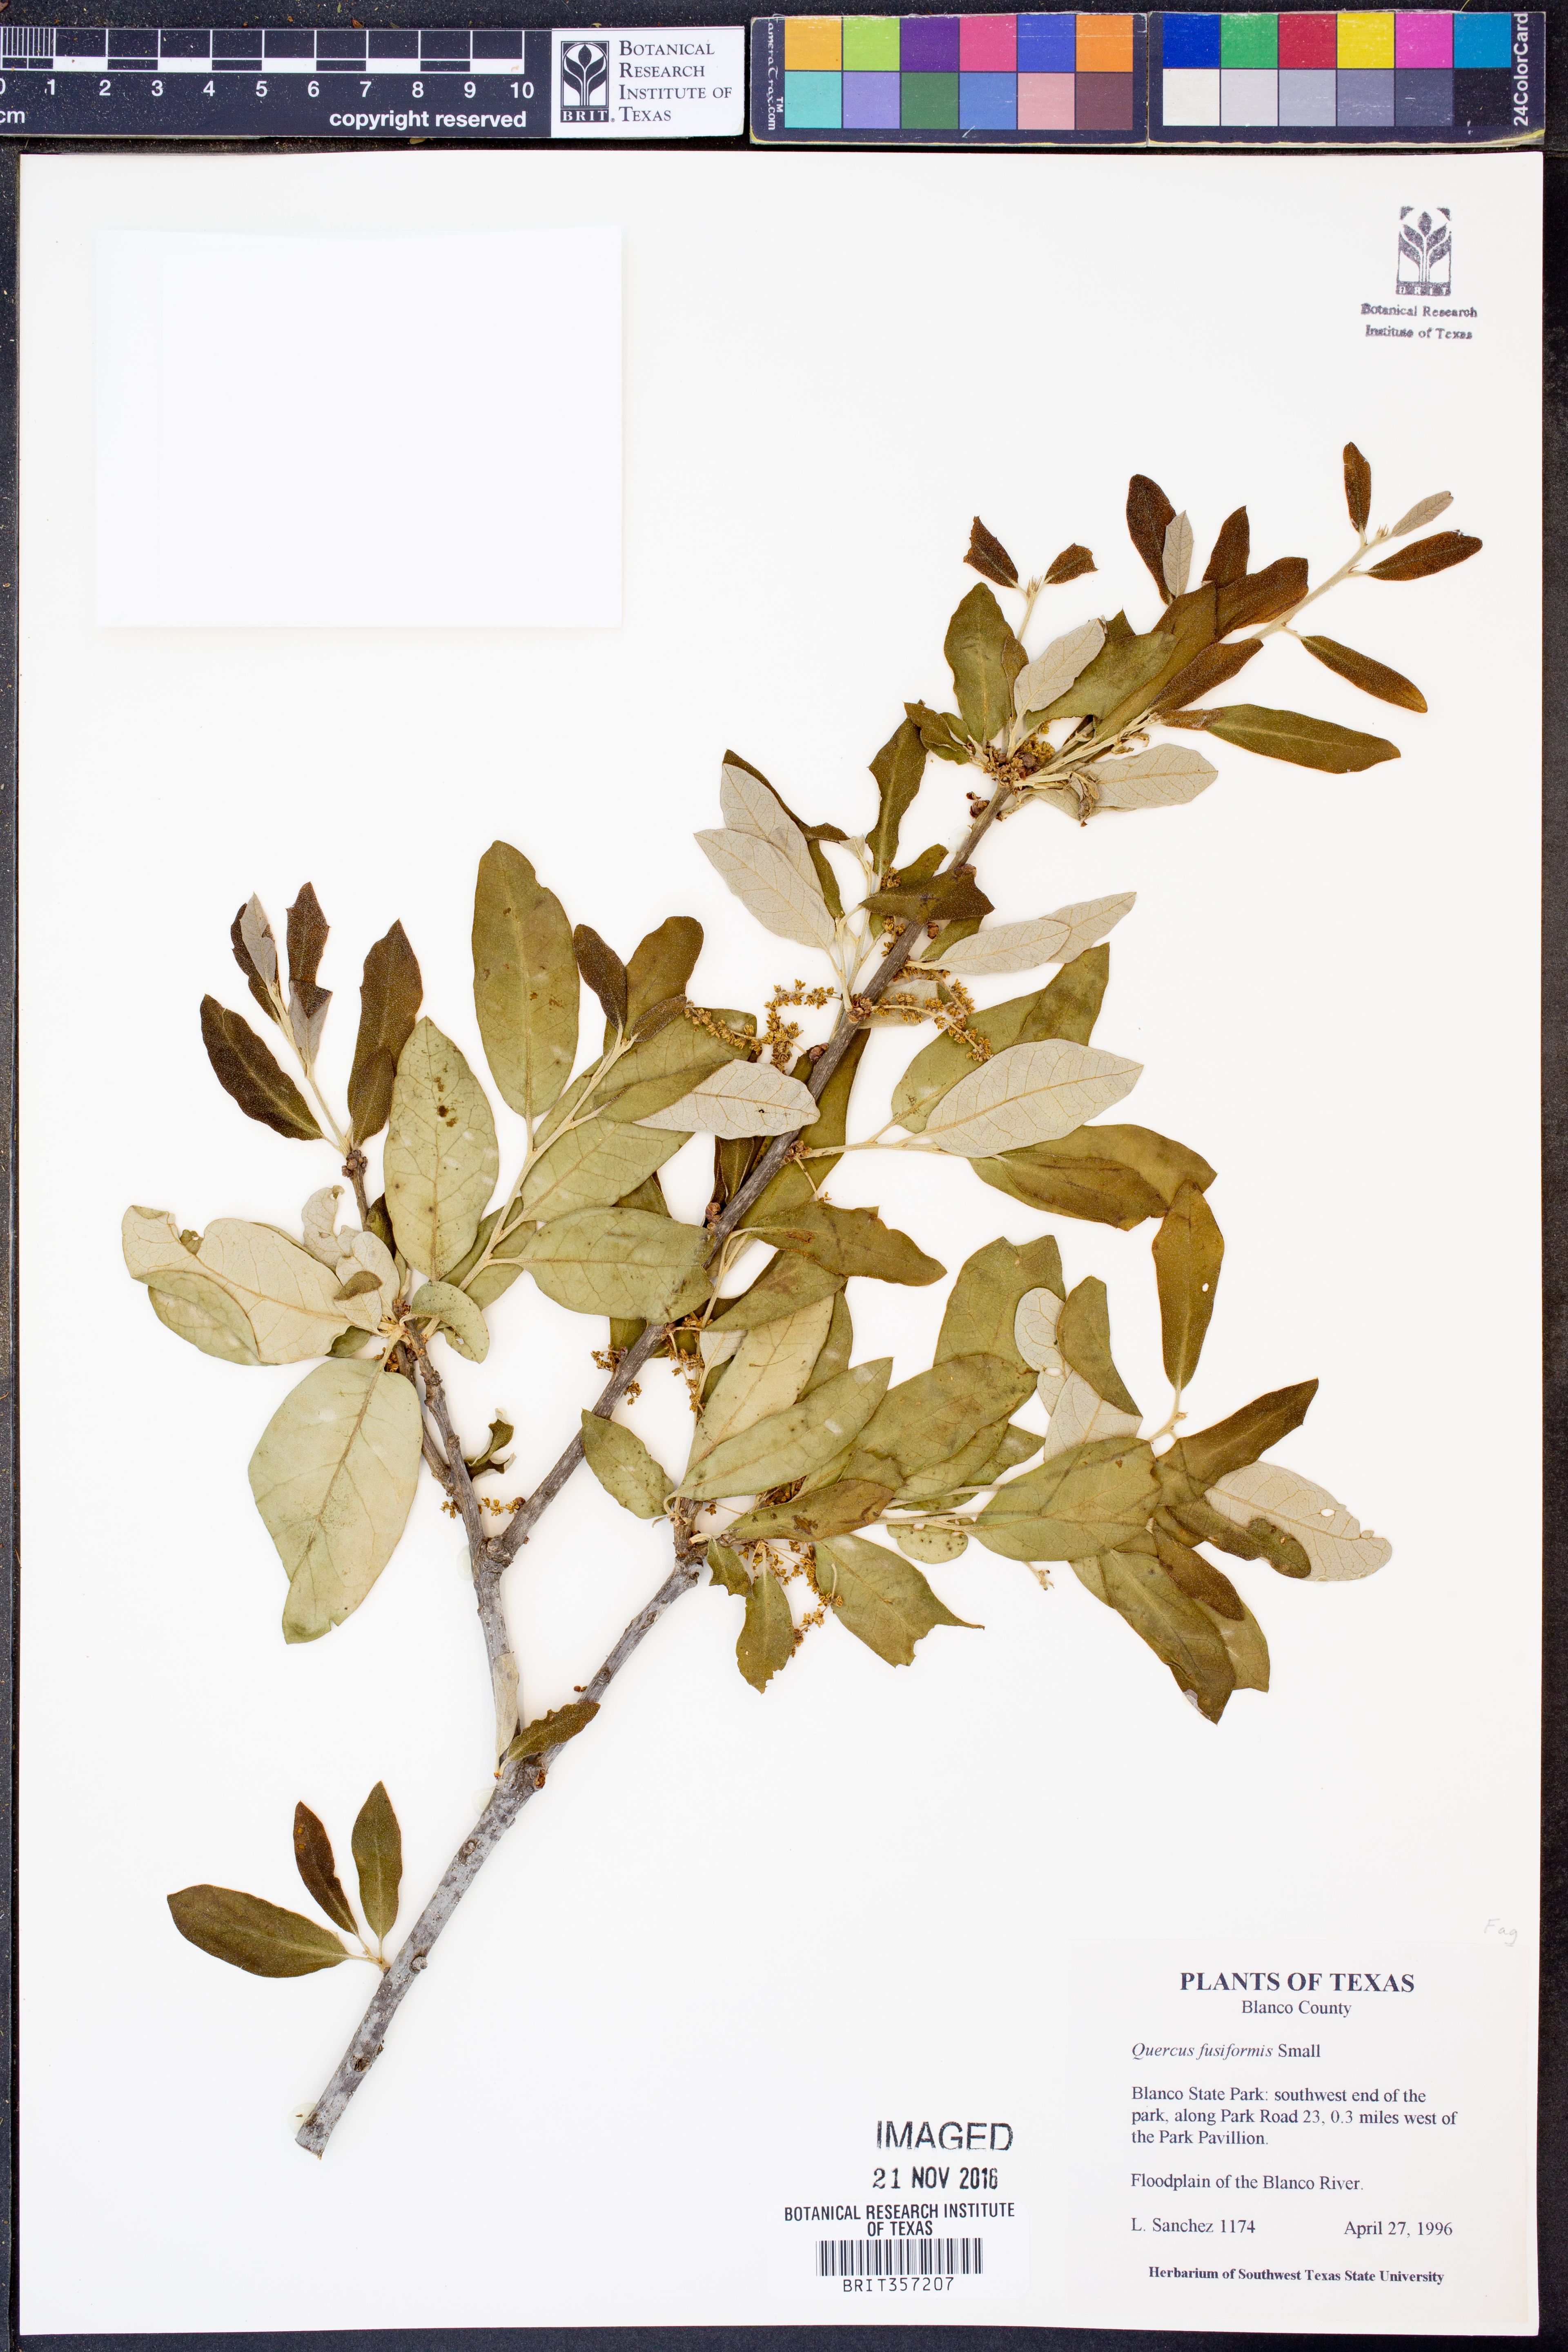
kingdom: Plantae
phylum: Tracheophyta
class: Magnoliopsida
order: Fagales
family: Fagaceae
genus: Quercus
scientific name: Quercus fusiformis
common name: Texas live oak
